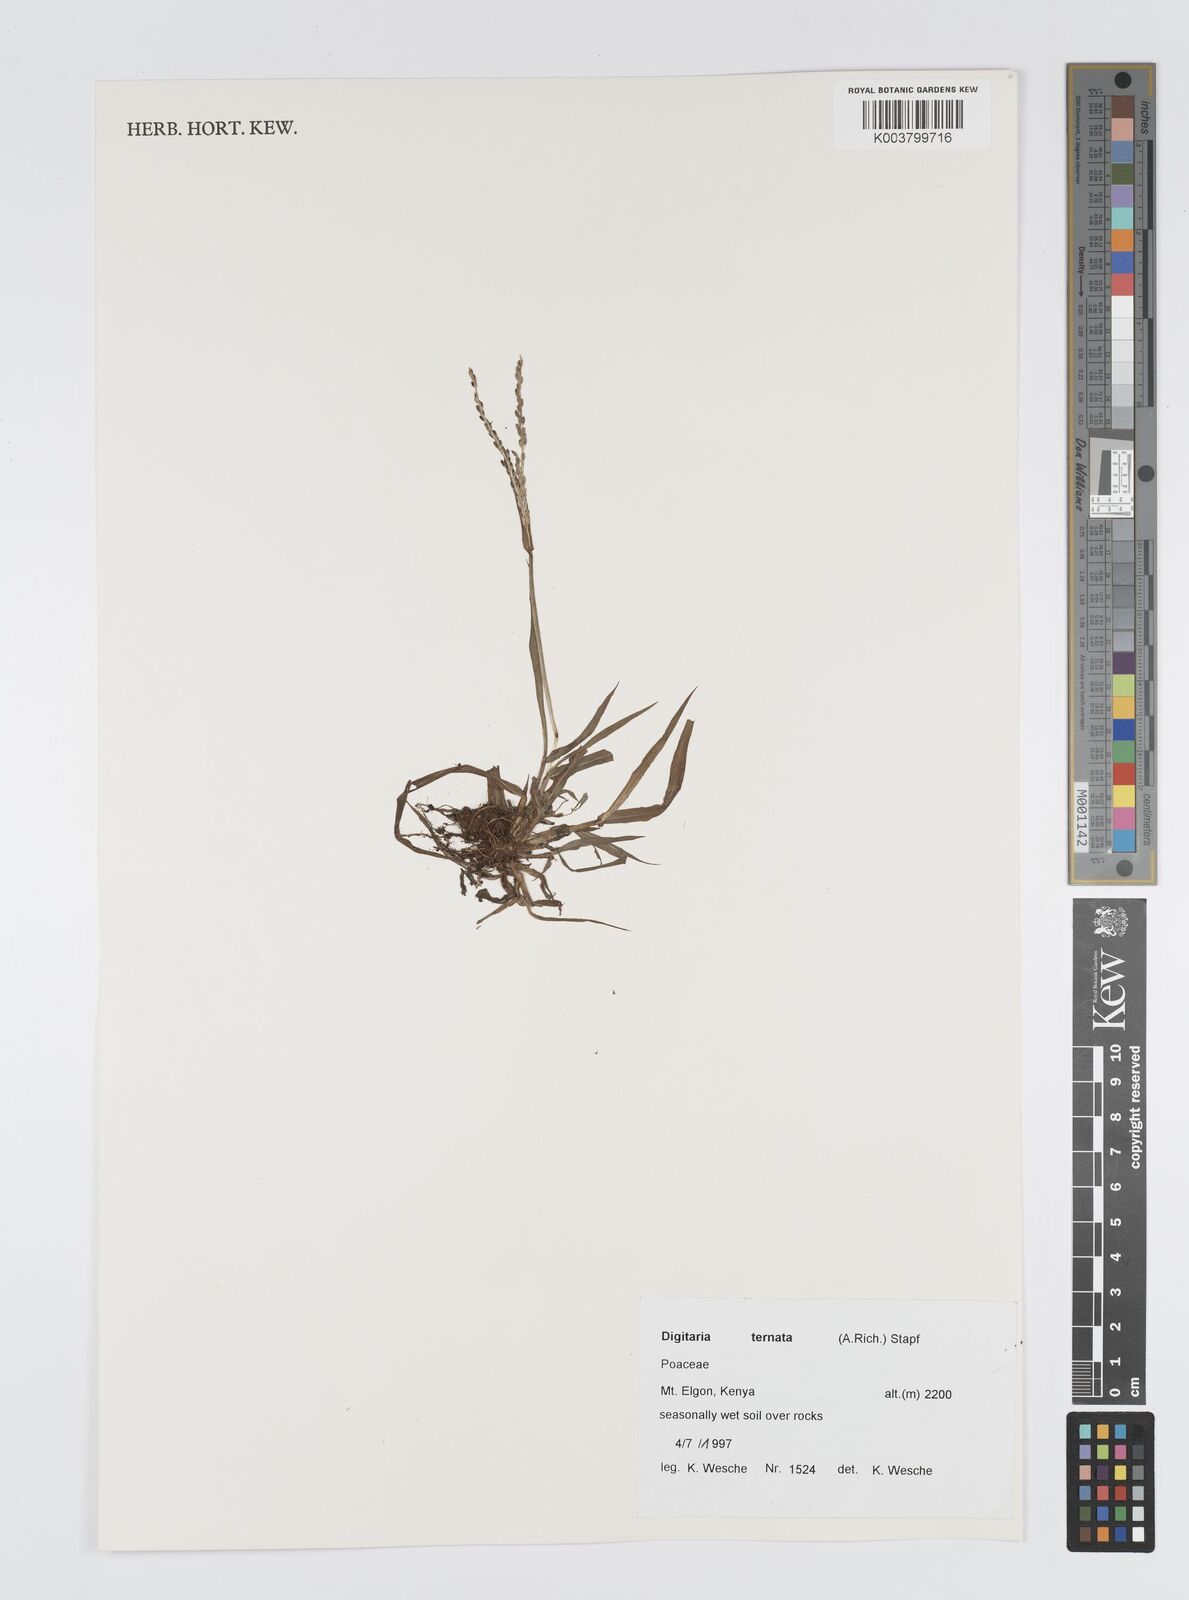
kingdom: Plantae
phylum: Tracheophyta
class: Liliopsida
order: Poales
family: Poaceae
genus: Digitaria
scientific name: Digitaria ternata
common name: Blackseed crabgrass
